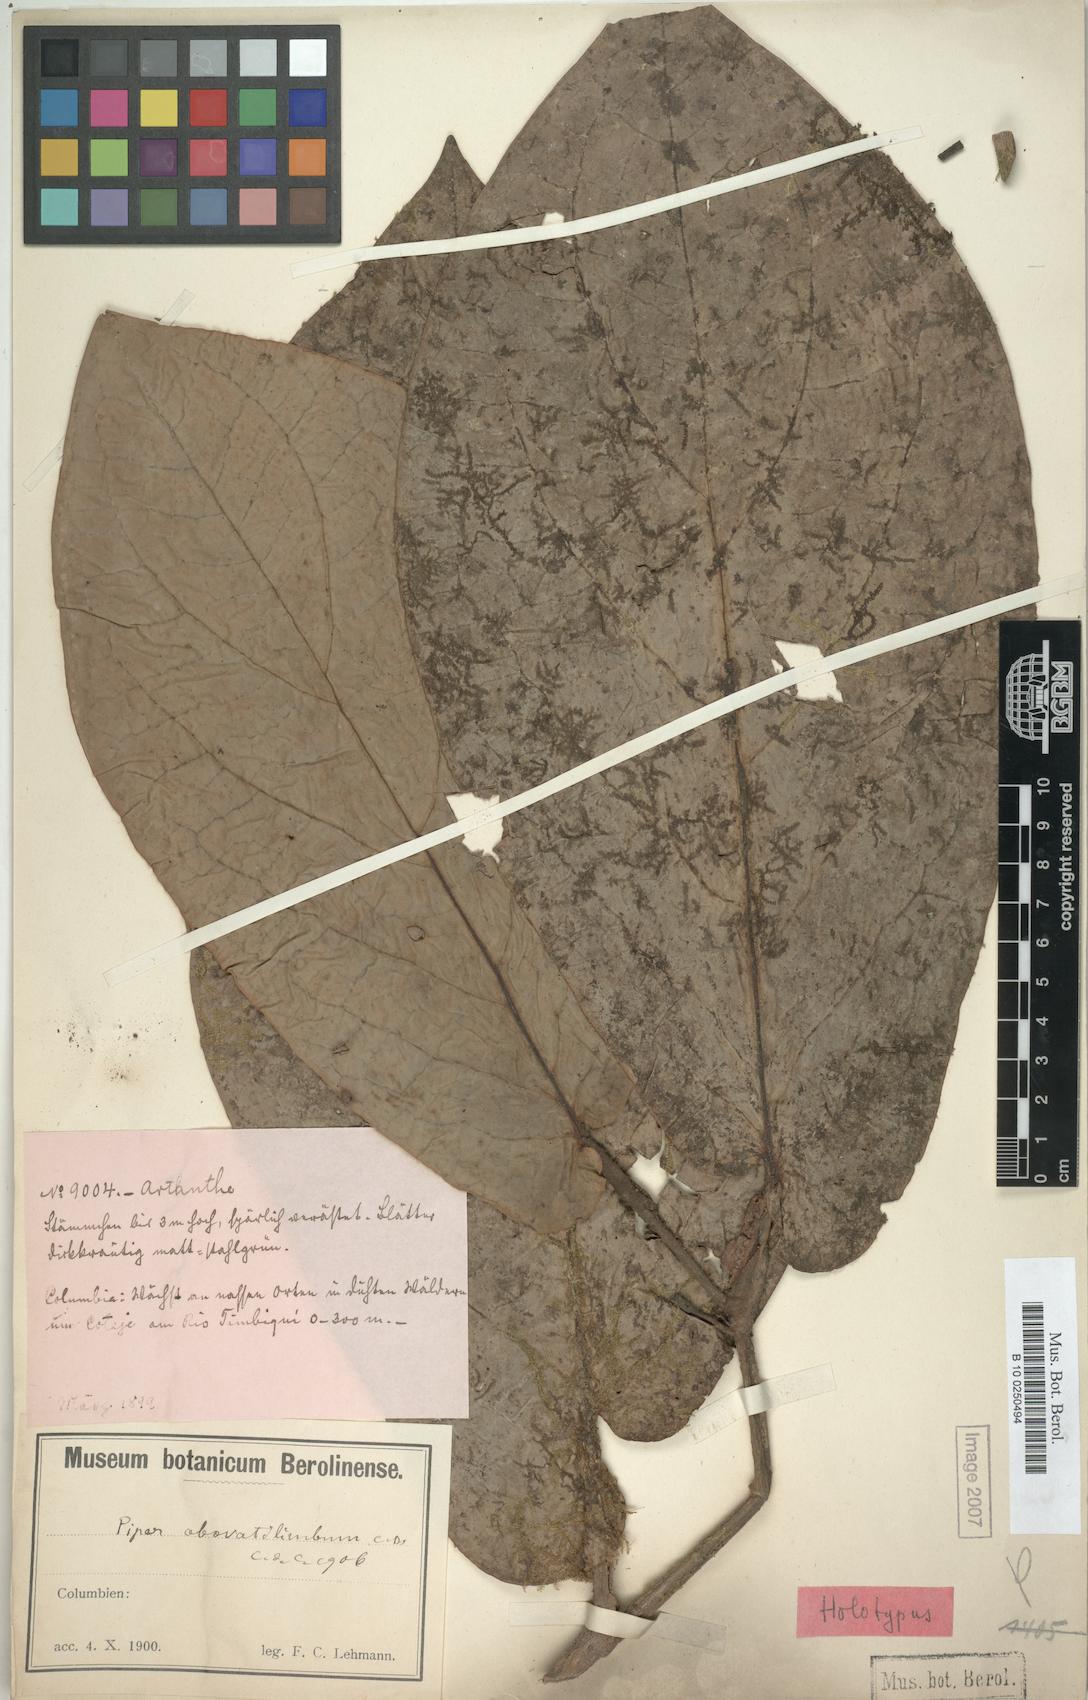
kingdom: Plantae
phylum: Tracheophyta
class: Magnoliopsida
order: Piperales
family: Piperaceae
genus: Piper
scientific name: Piper imperiale
